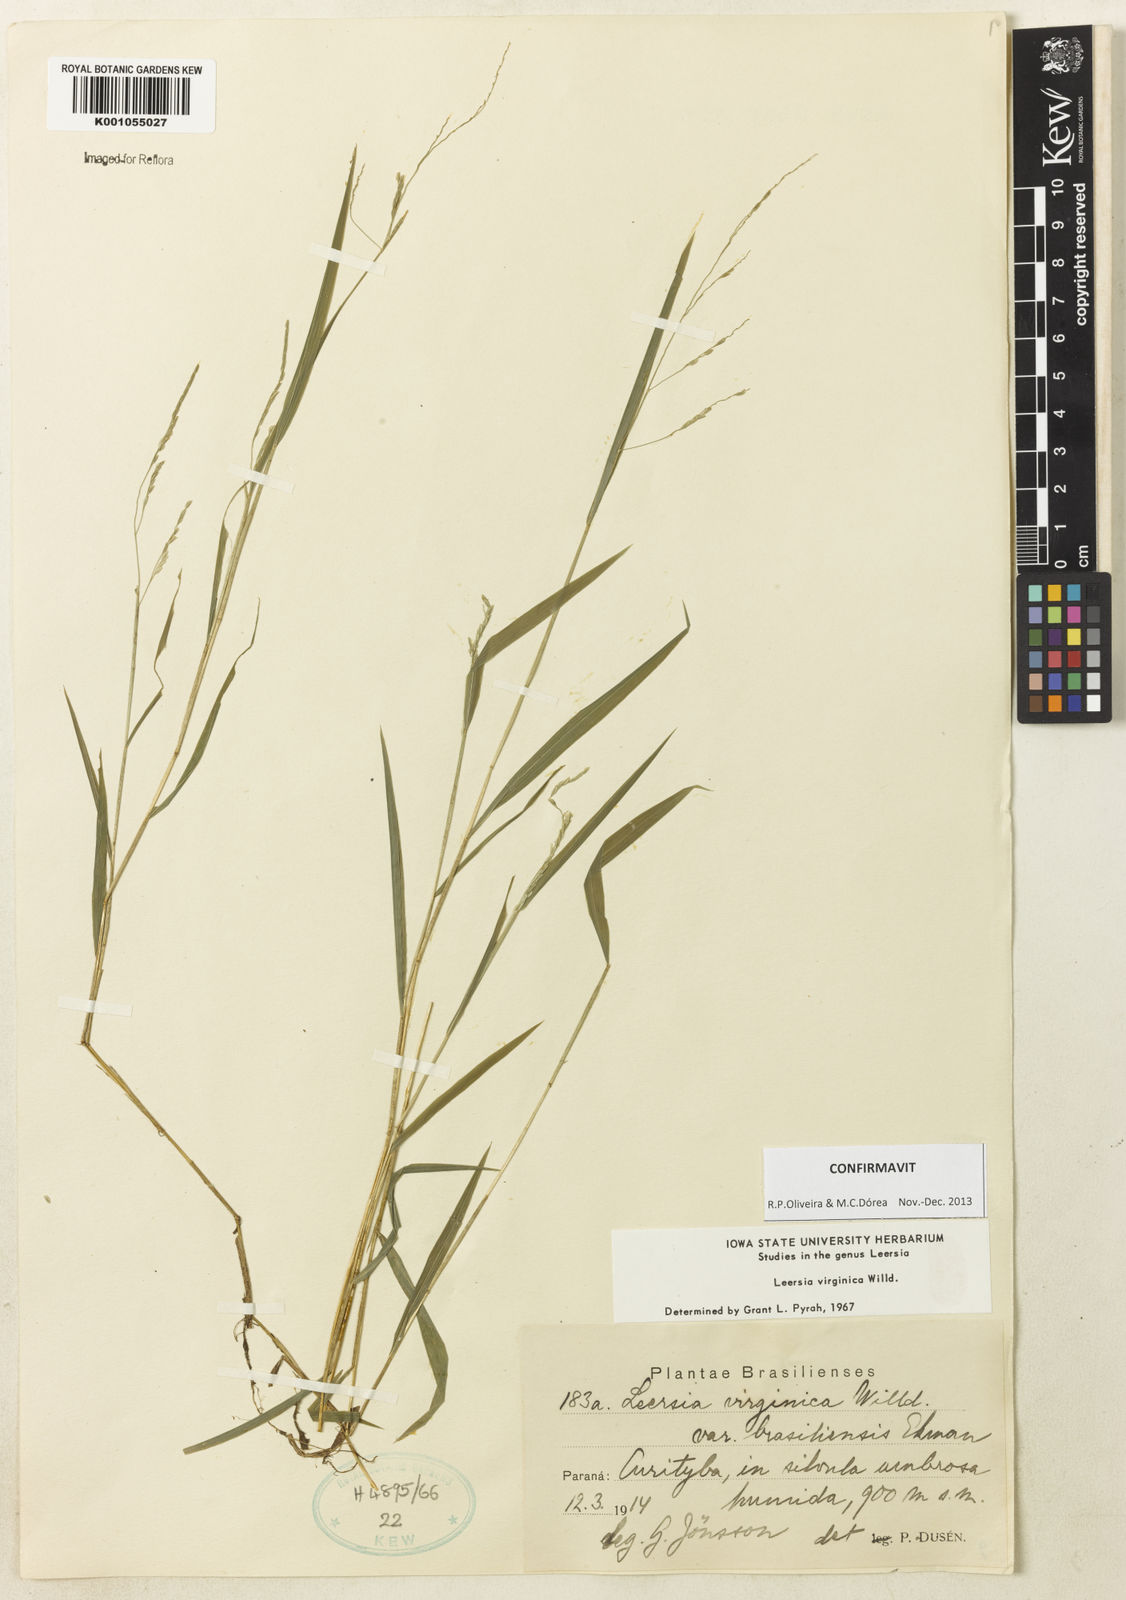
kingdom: Plantae
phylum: Tracheophyta
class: Liliopsida
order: Poales
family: Poaceae
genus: Leersia
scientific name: Leersia virginica
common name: White cutgrass
